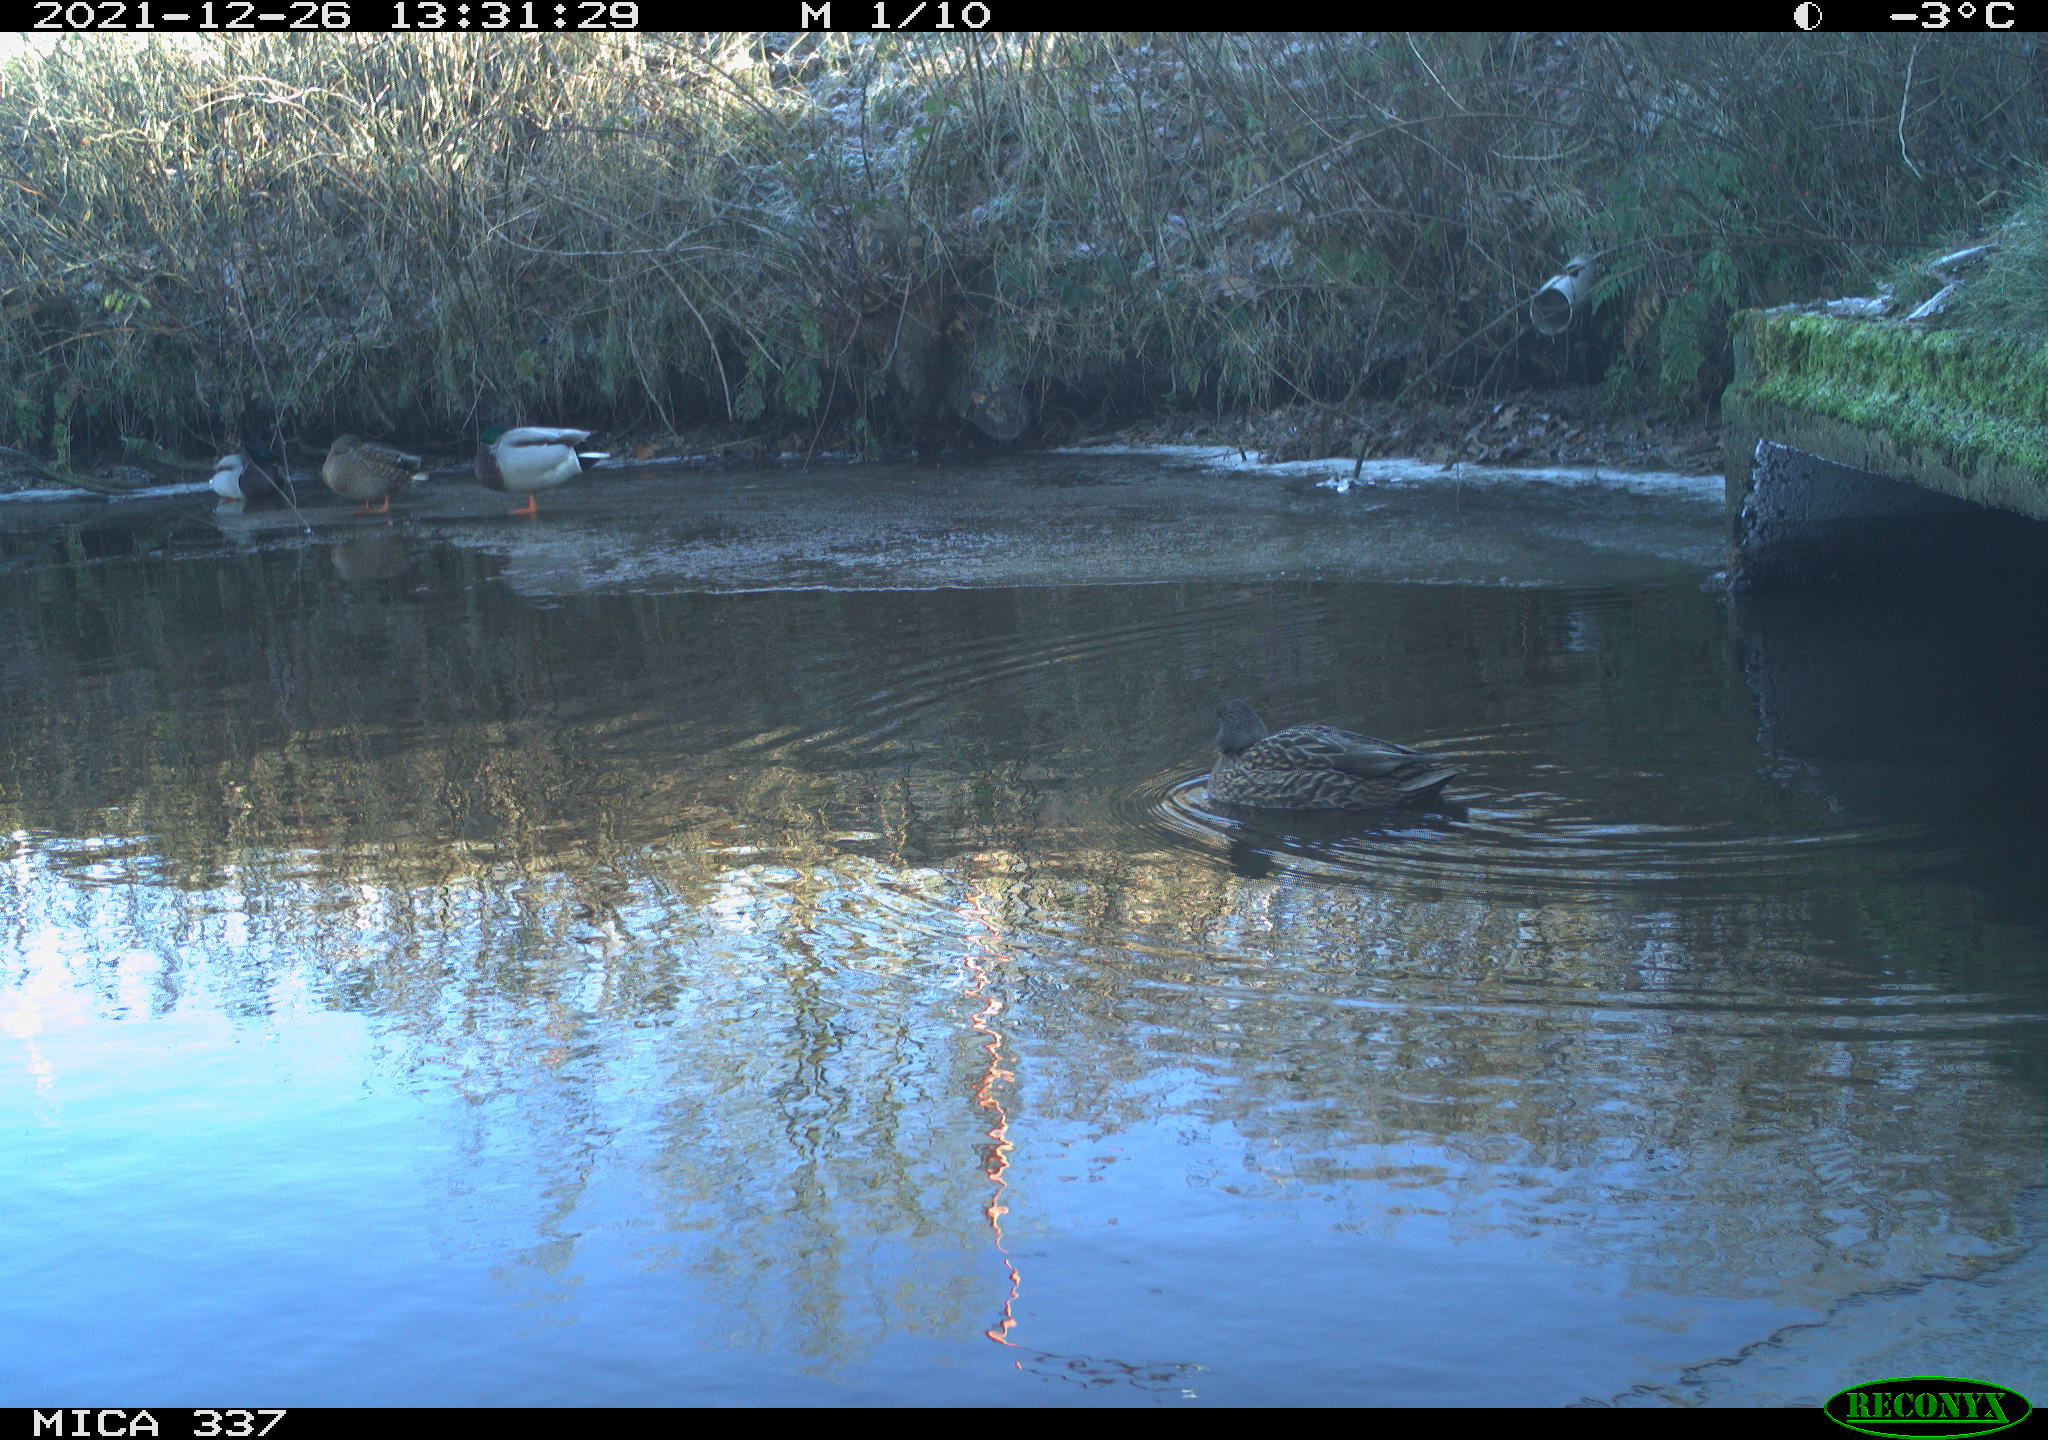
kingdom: Animalia
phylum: Chordata
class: Aves
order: Anseriformes
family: Anatidae
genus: Anas
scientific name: Anas platyrhynchos
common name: Mallard
